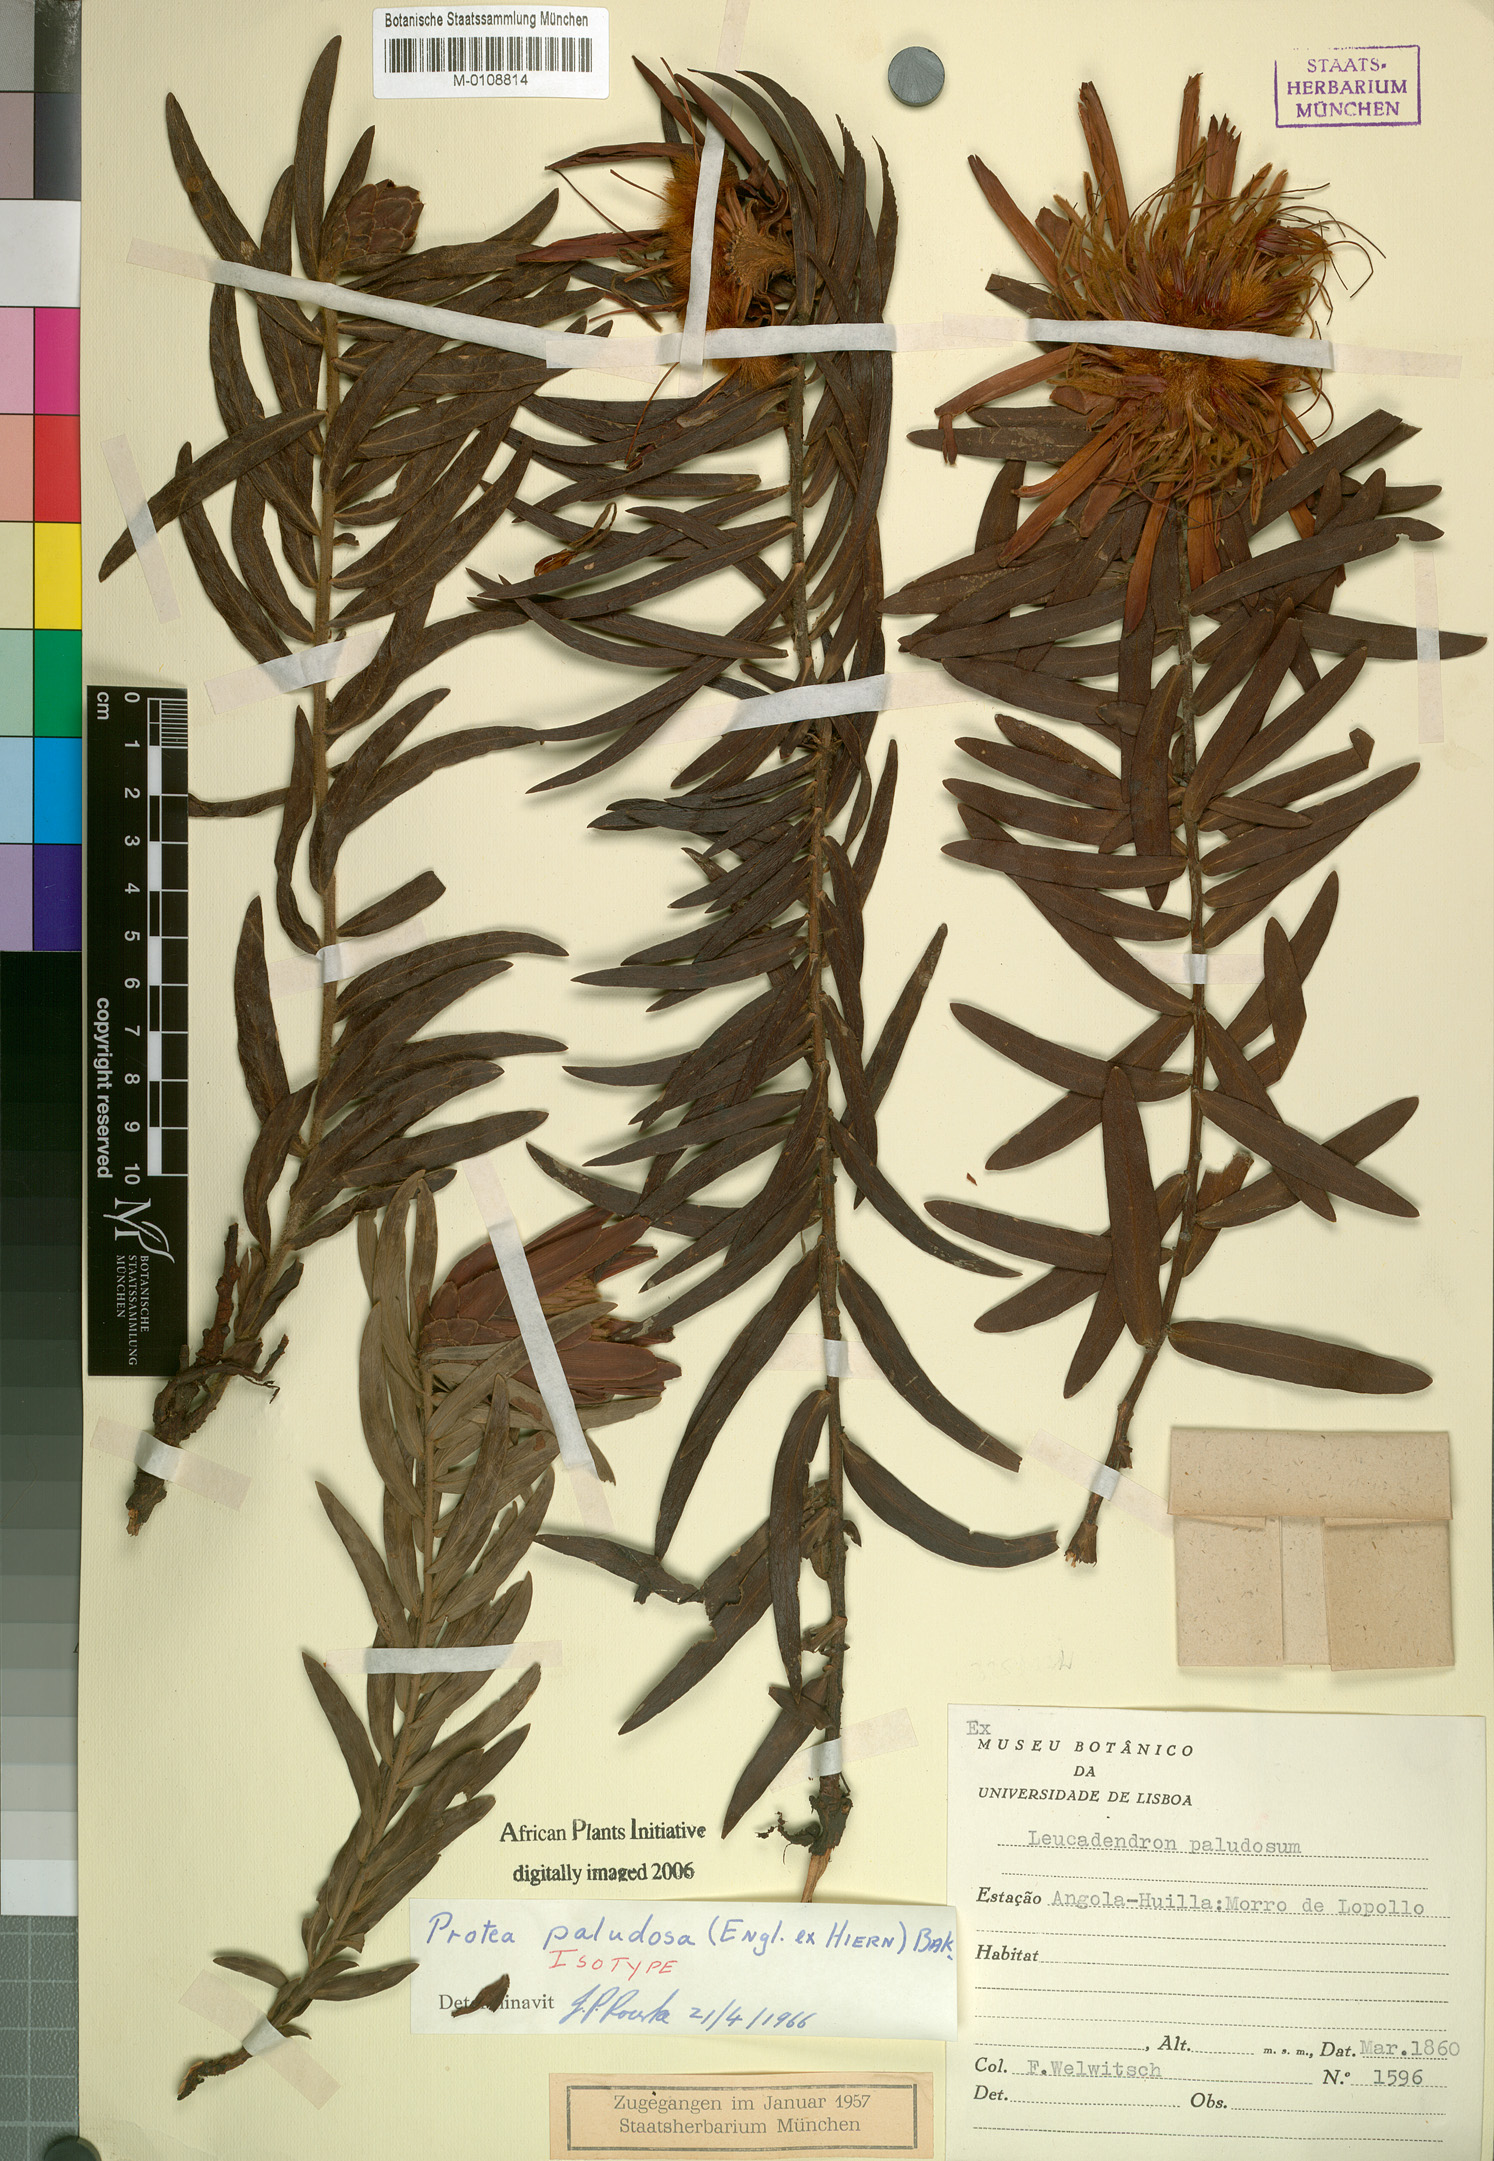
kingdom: Plantae
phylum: Tracheophyta
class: Magnoliopsida
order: Proteales
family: Proteaceae
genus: Protea
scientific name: Protea paludosa
